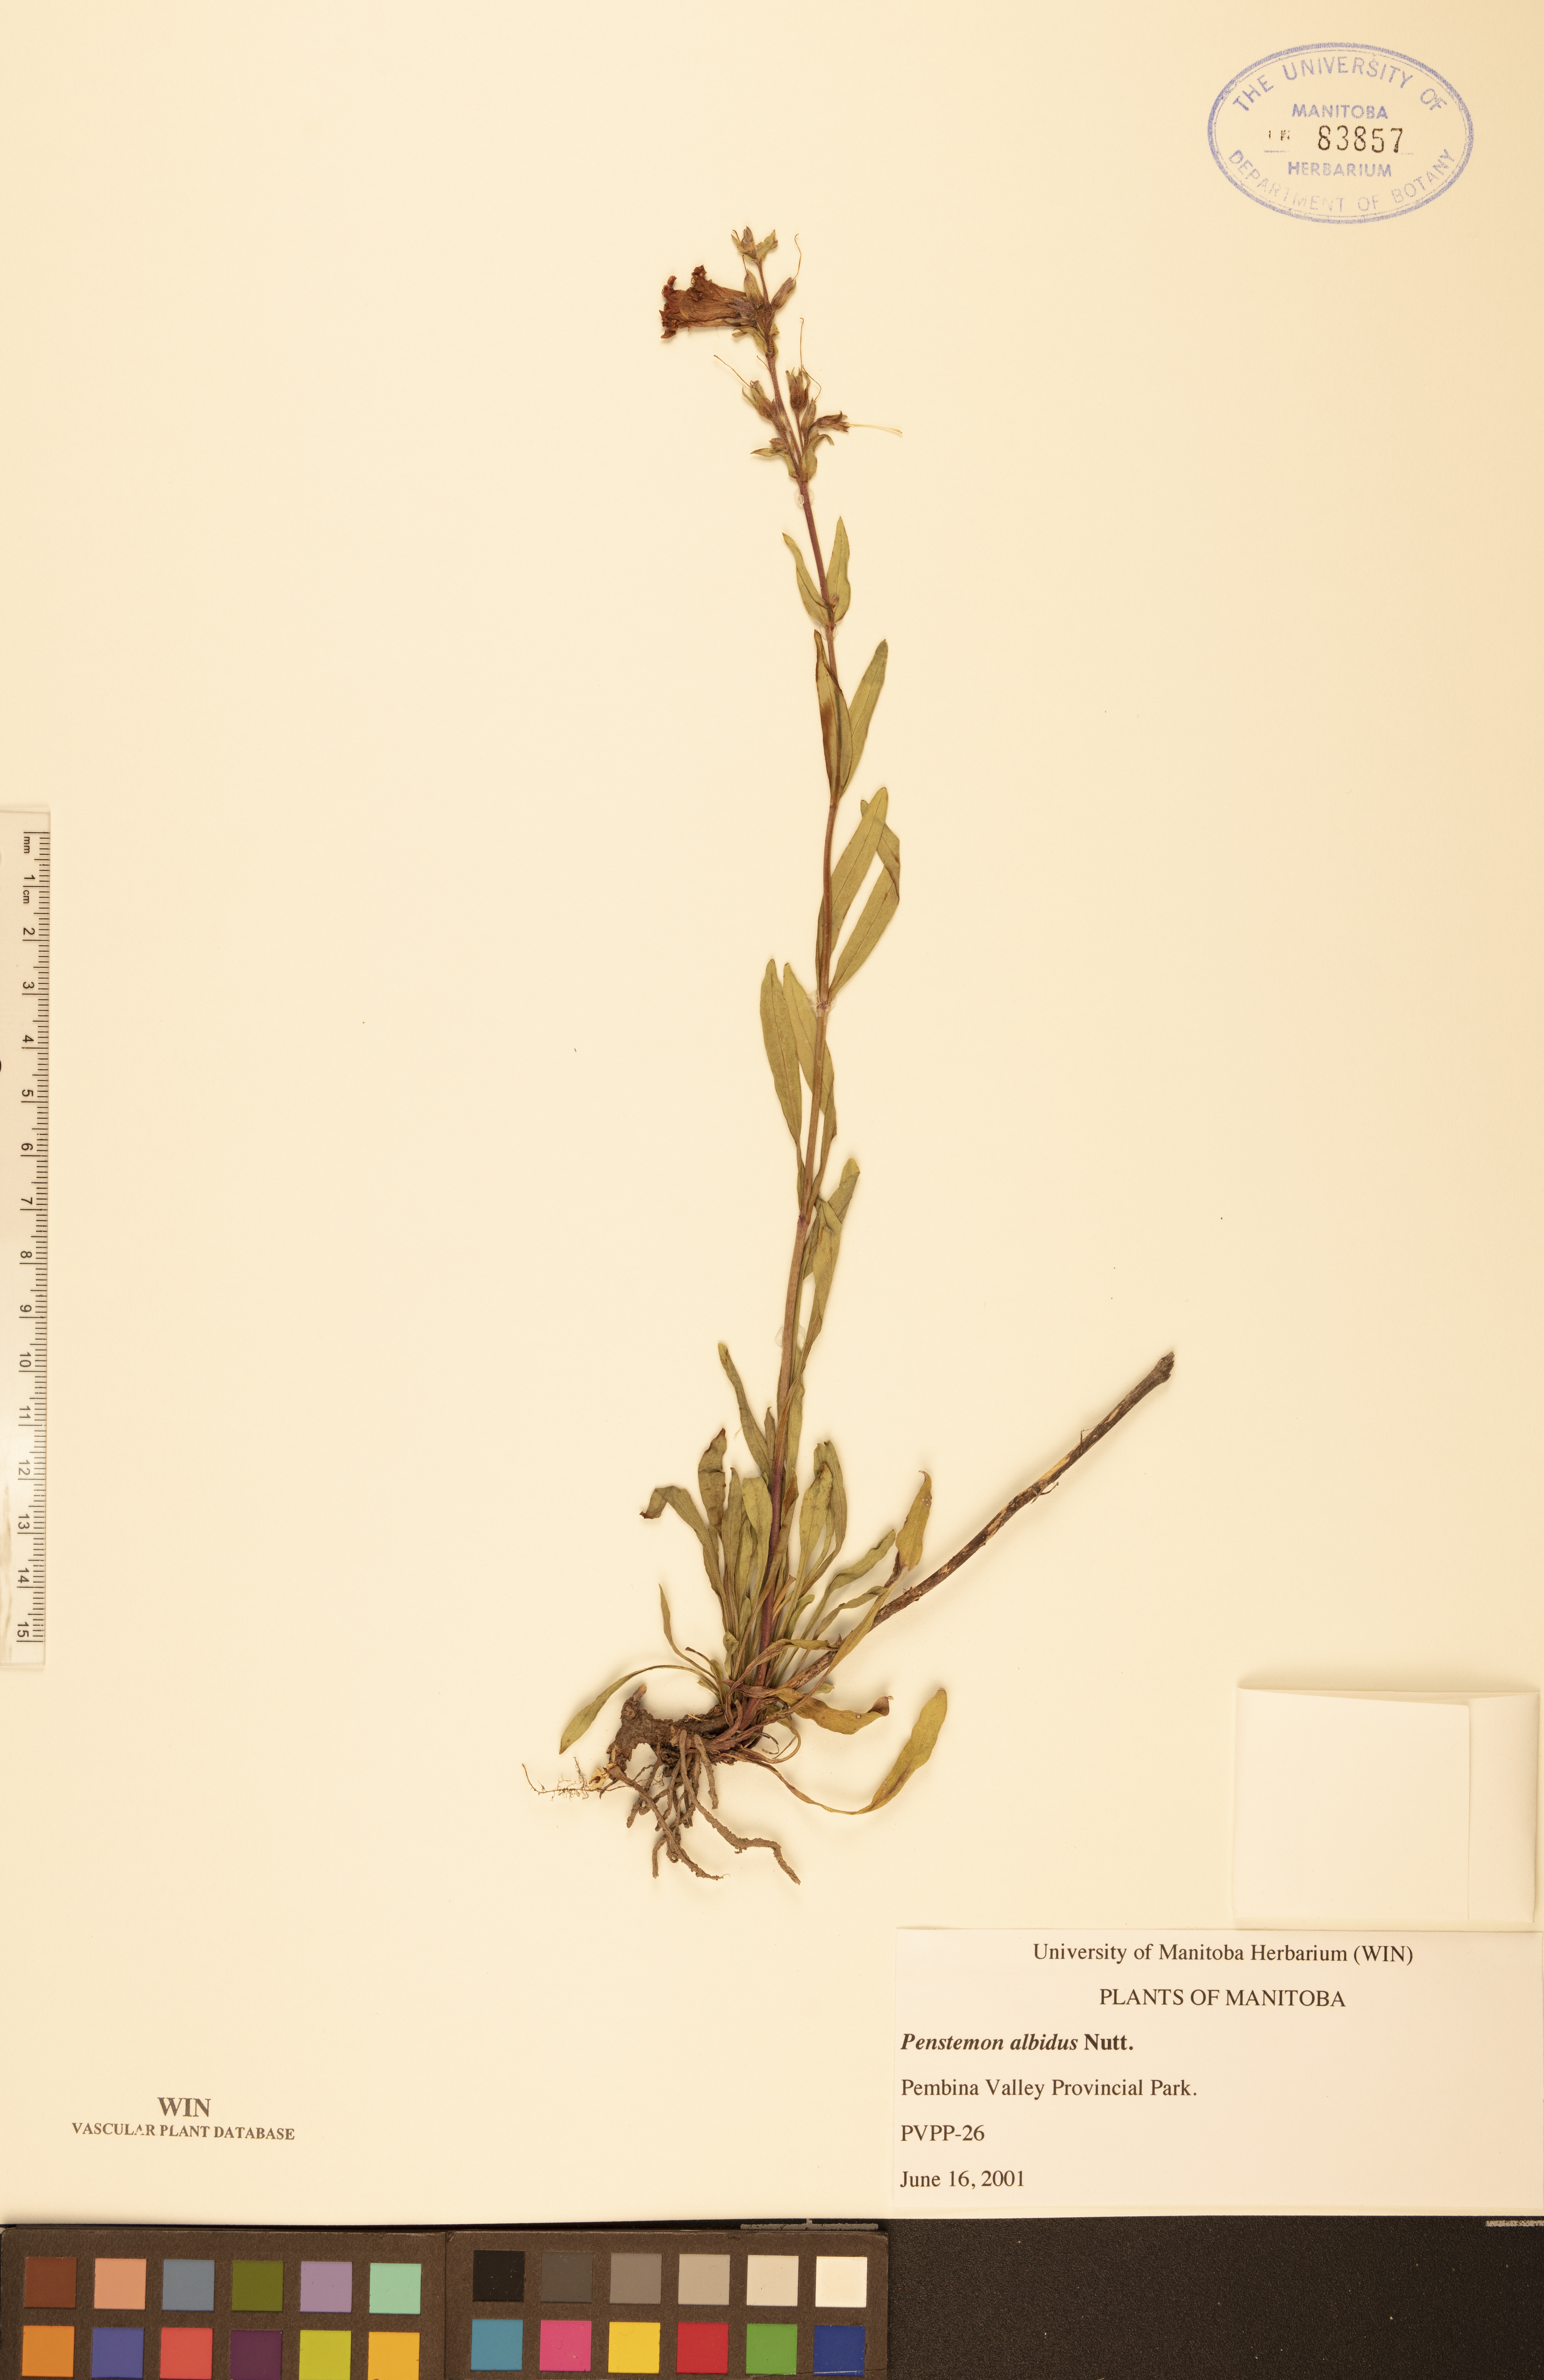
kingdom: Plantae
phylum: Tracheophyta
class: Magnoliopsida
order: Lamiales
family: Plantaginaceae
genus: Penstemon
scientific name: Penstemon albidus
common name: White beardtongue
